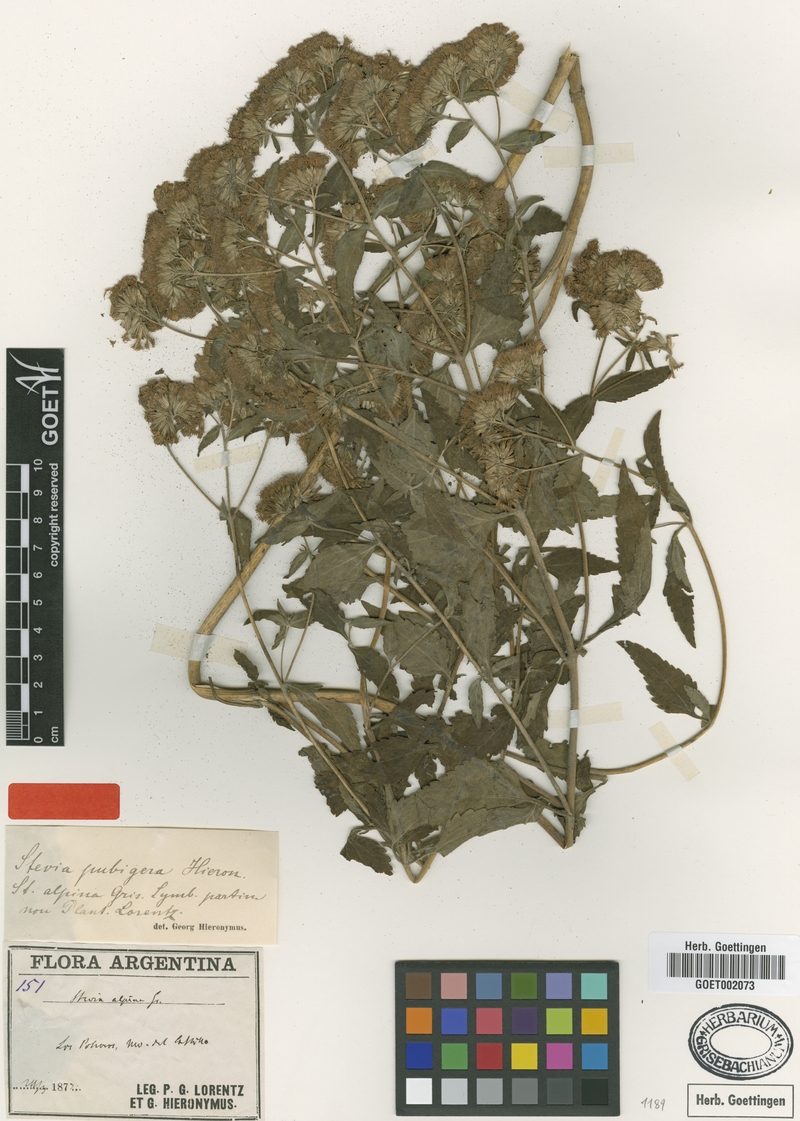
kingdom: Plantae
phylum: Tracheophyta
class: Magnoliopsida
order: Asterales
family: Asteraceae
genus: Stevia
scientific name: Stevia breviaristata
